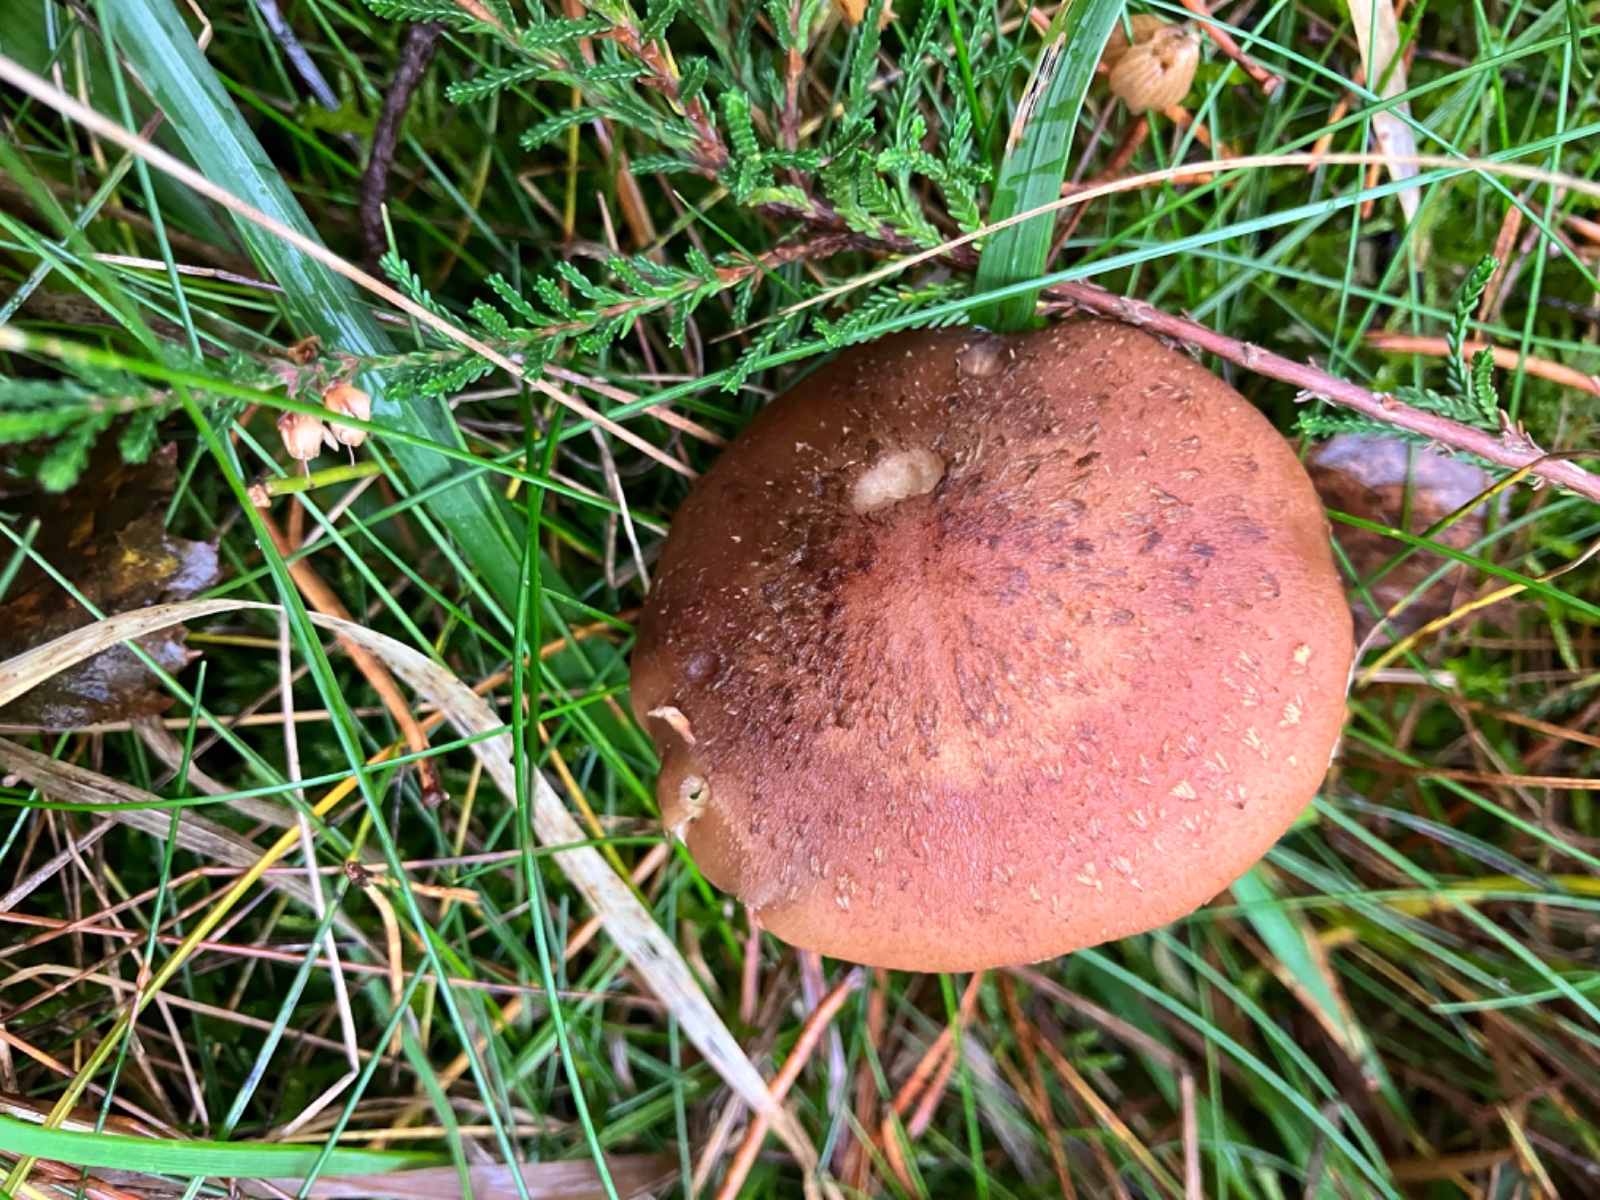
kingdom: Fungi
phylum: Basidiomycota
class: Agaricomycetes
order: Agaricales
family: Physalacriaceae
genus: Armillaria
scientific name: Armillaria ostoyae
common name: mørk honningsvamp
